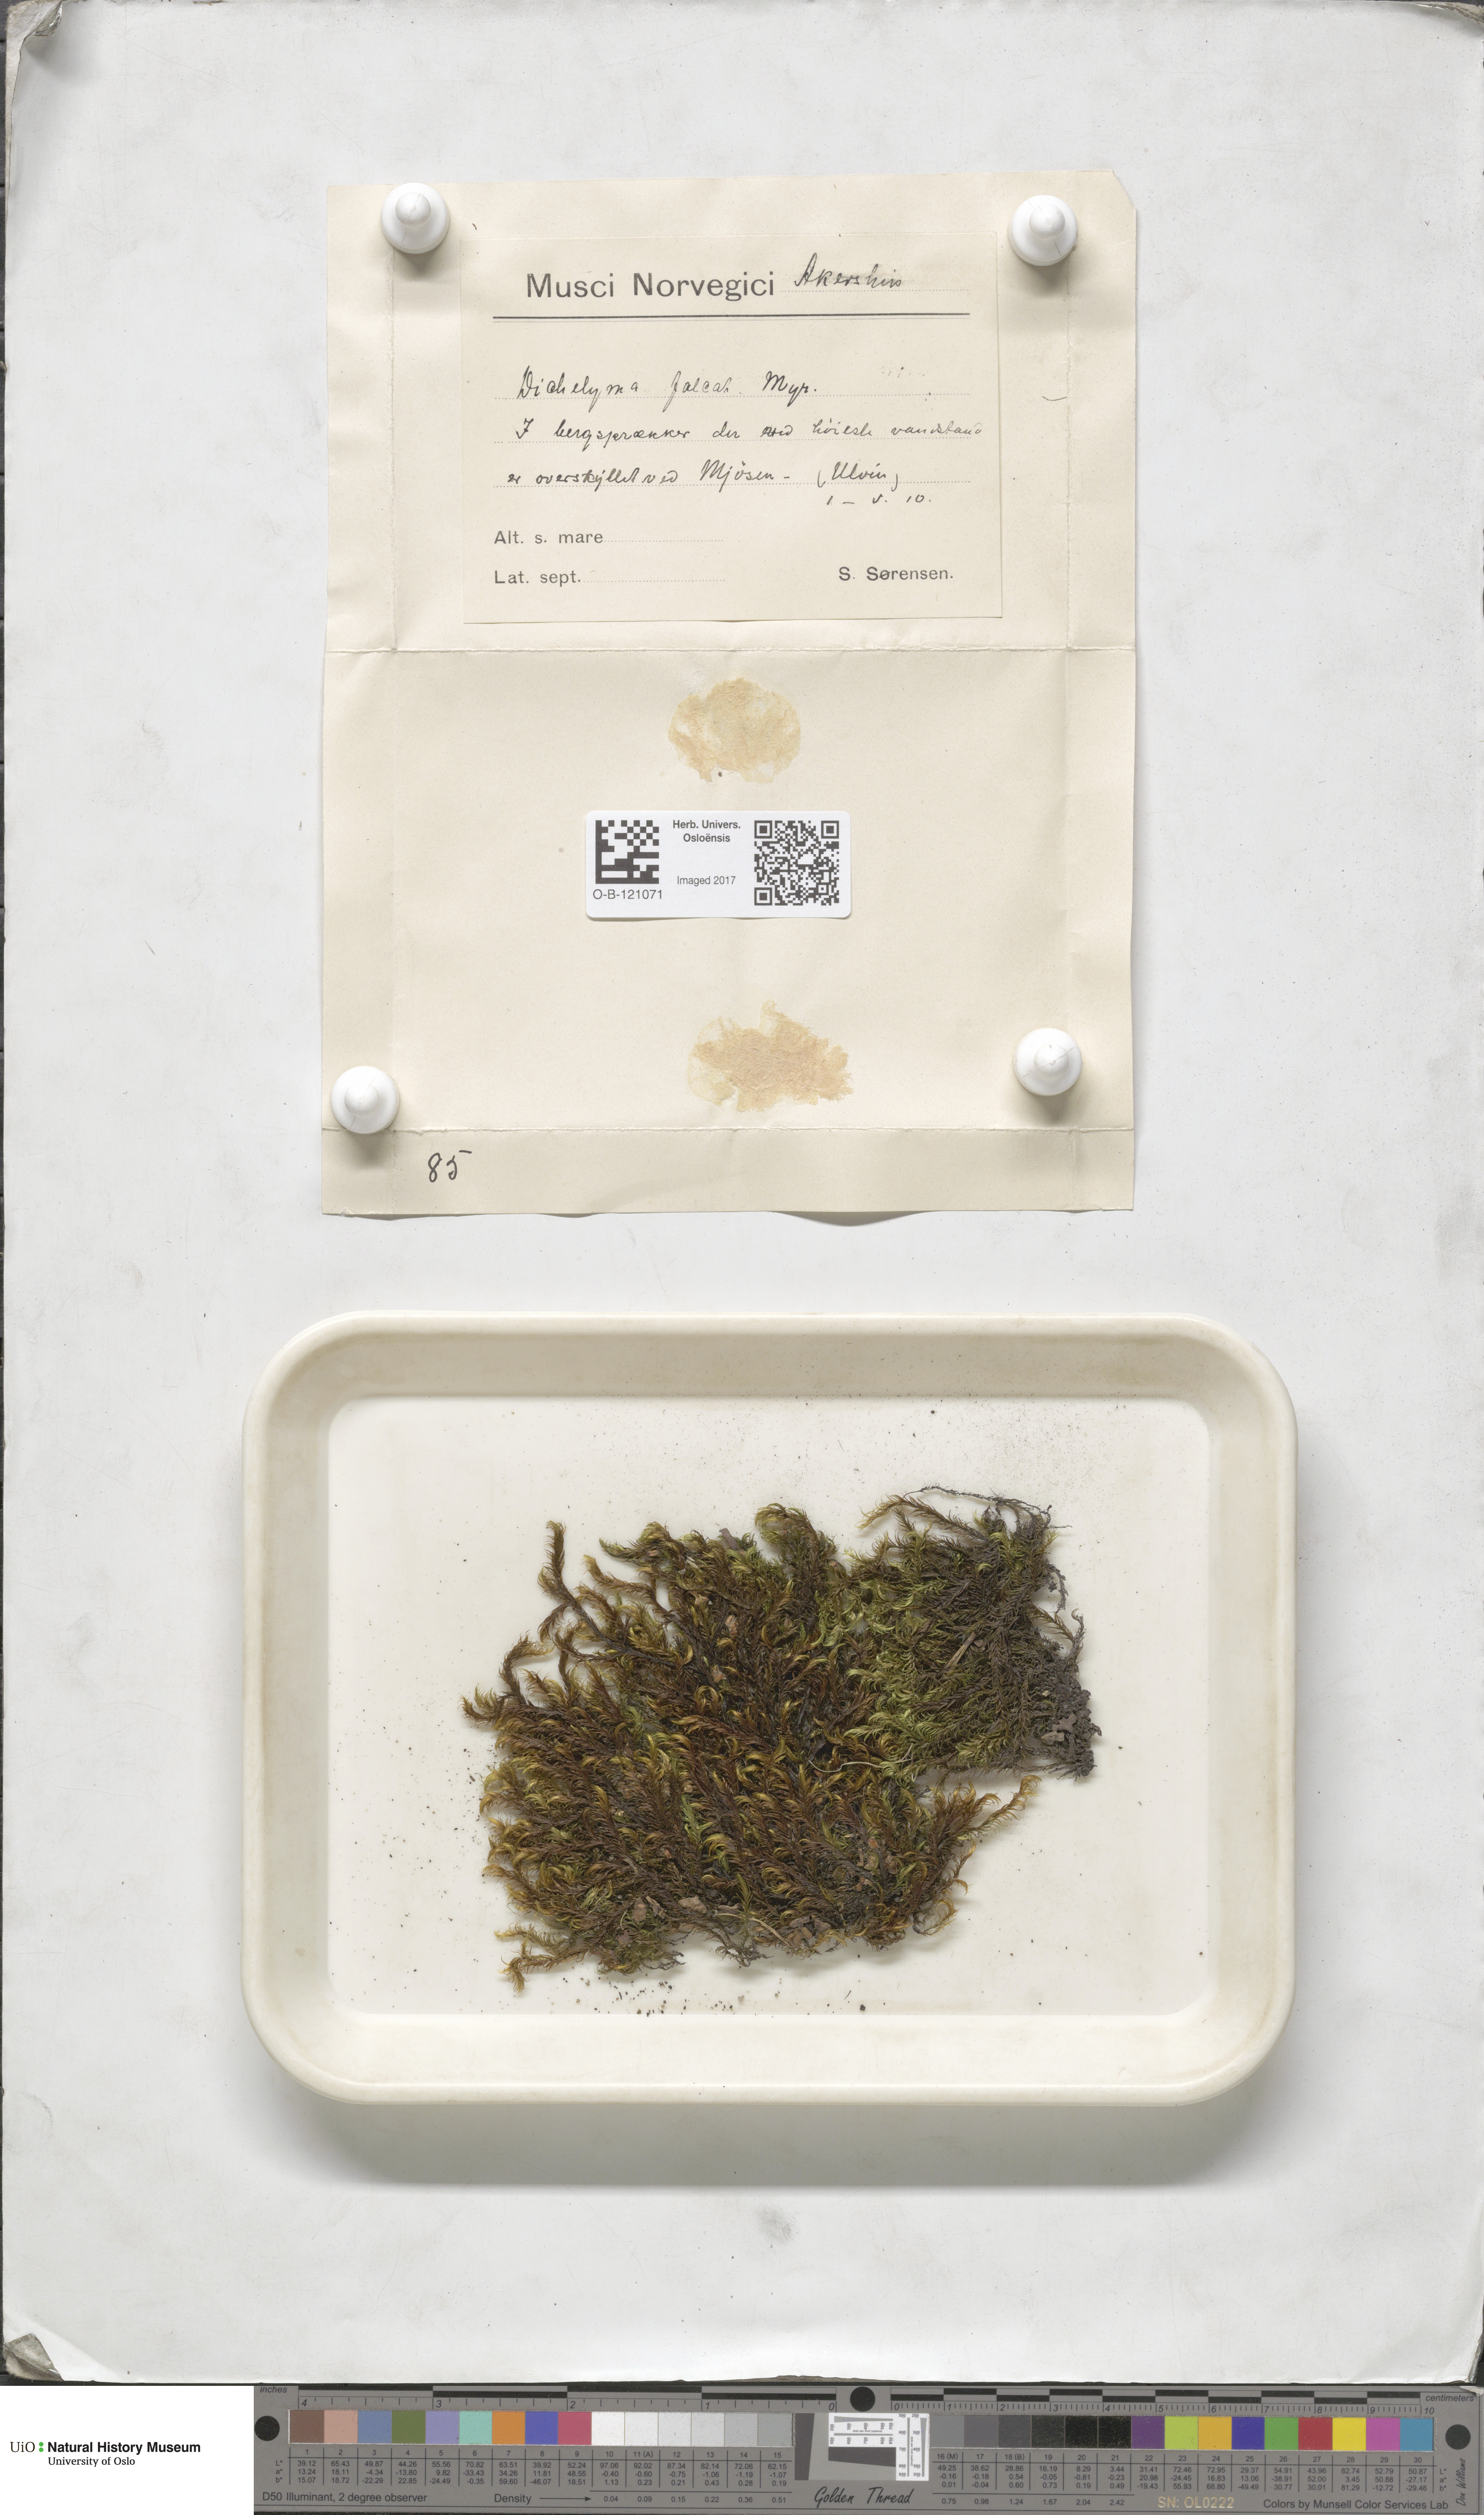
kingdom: Plantae
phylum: Bryophyta
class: Bryopsida
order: Hypnales
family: Fontinalaceae
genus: Dichelyma
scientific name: Dichelyma falcatum
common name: Lance-leaved claw moss
